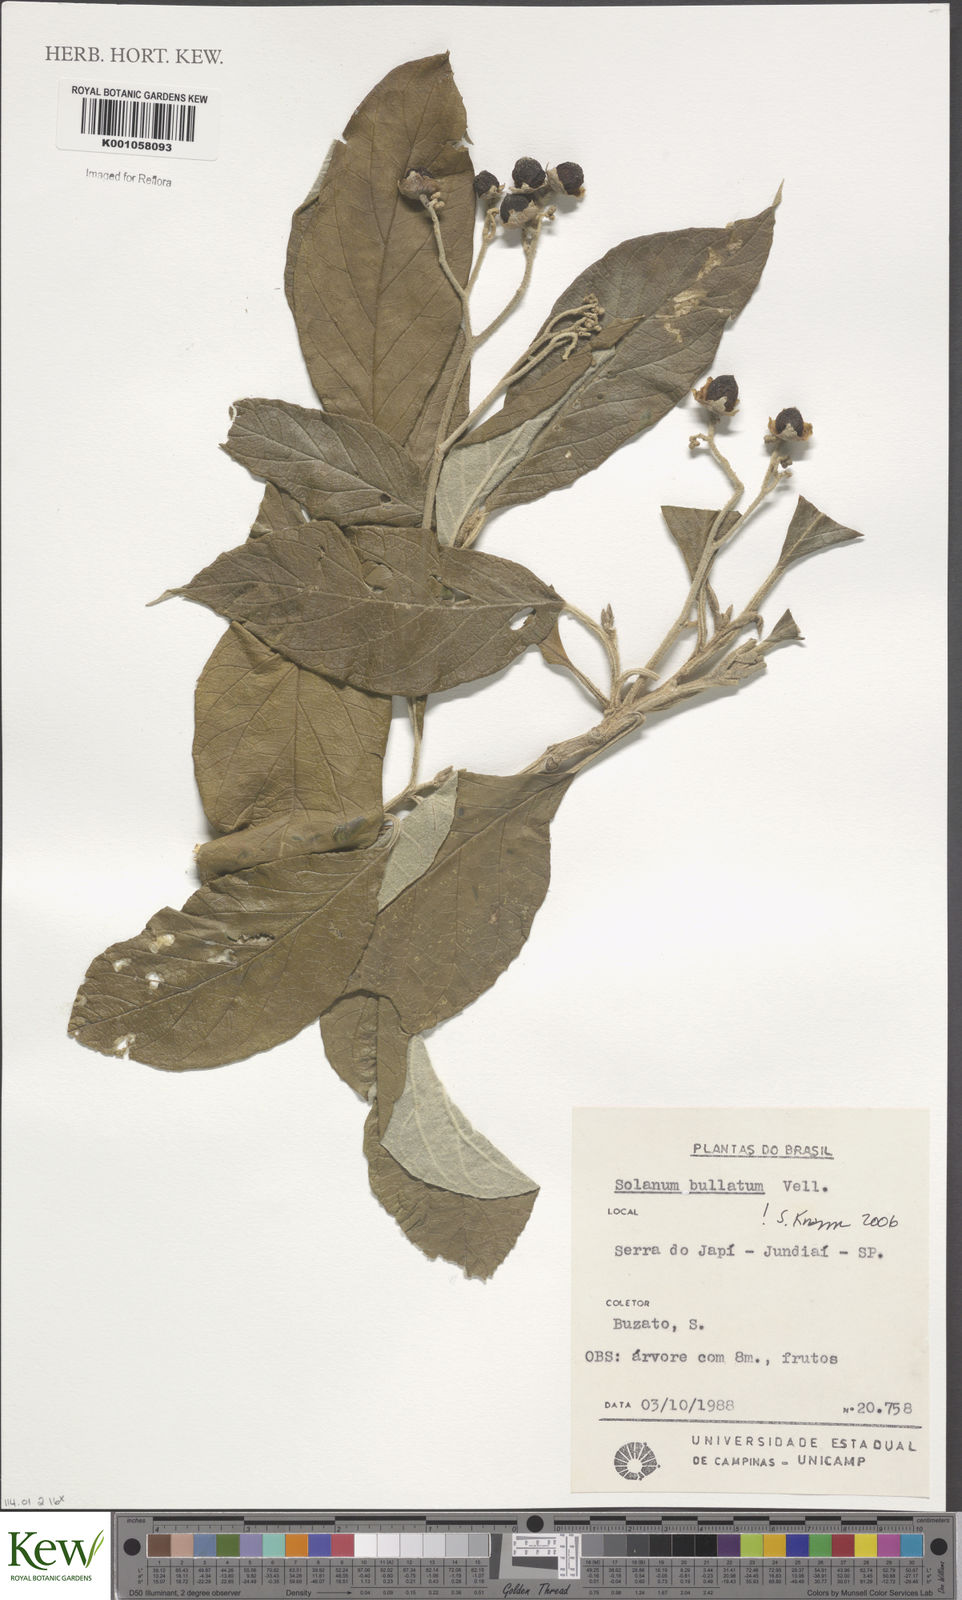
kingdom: Plantae
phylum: Tracheophyta
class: Magnoliopsida
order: Solanales
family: Solanaceae
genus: Solanum
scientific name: Solanum bullatum
